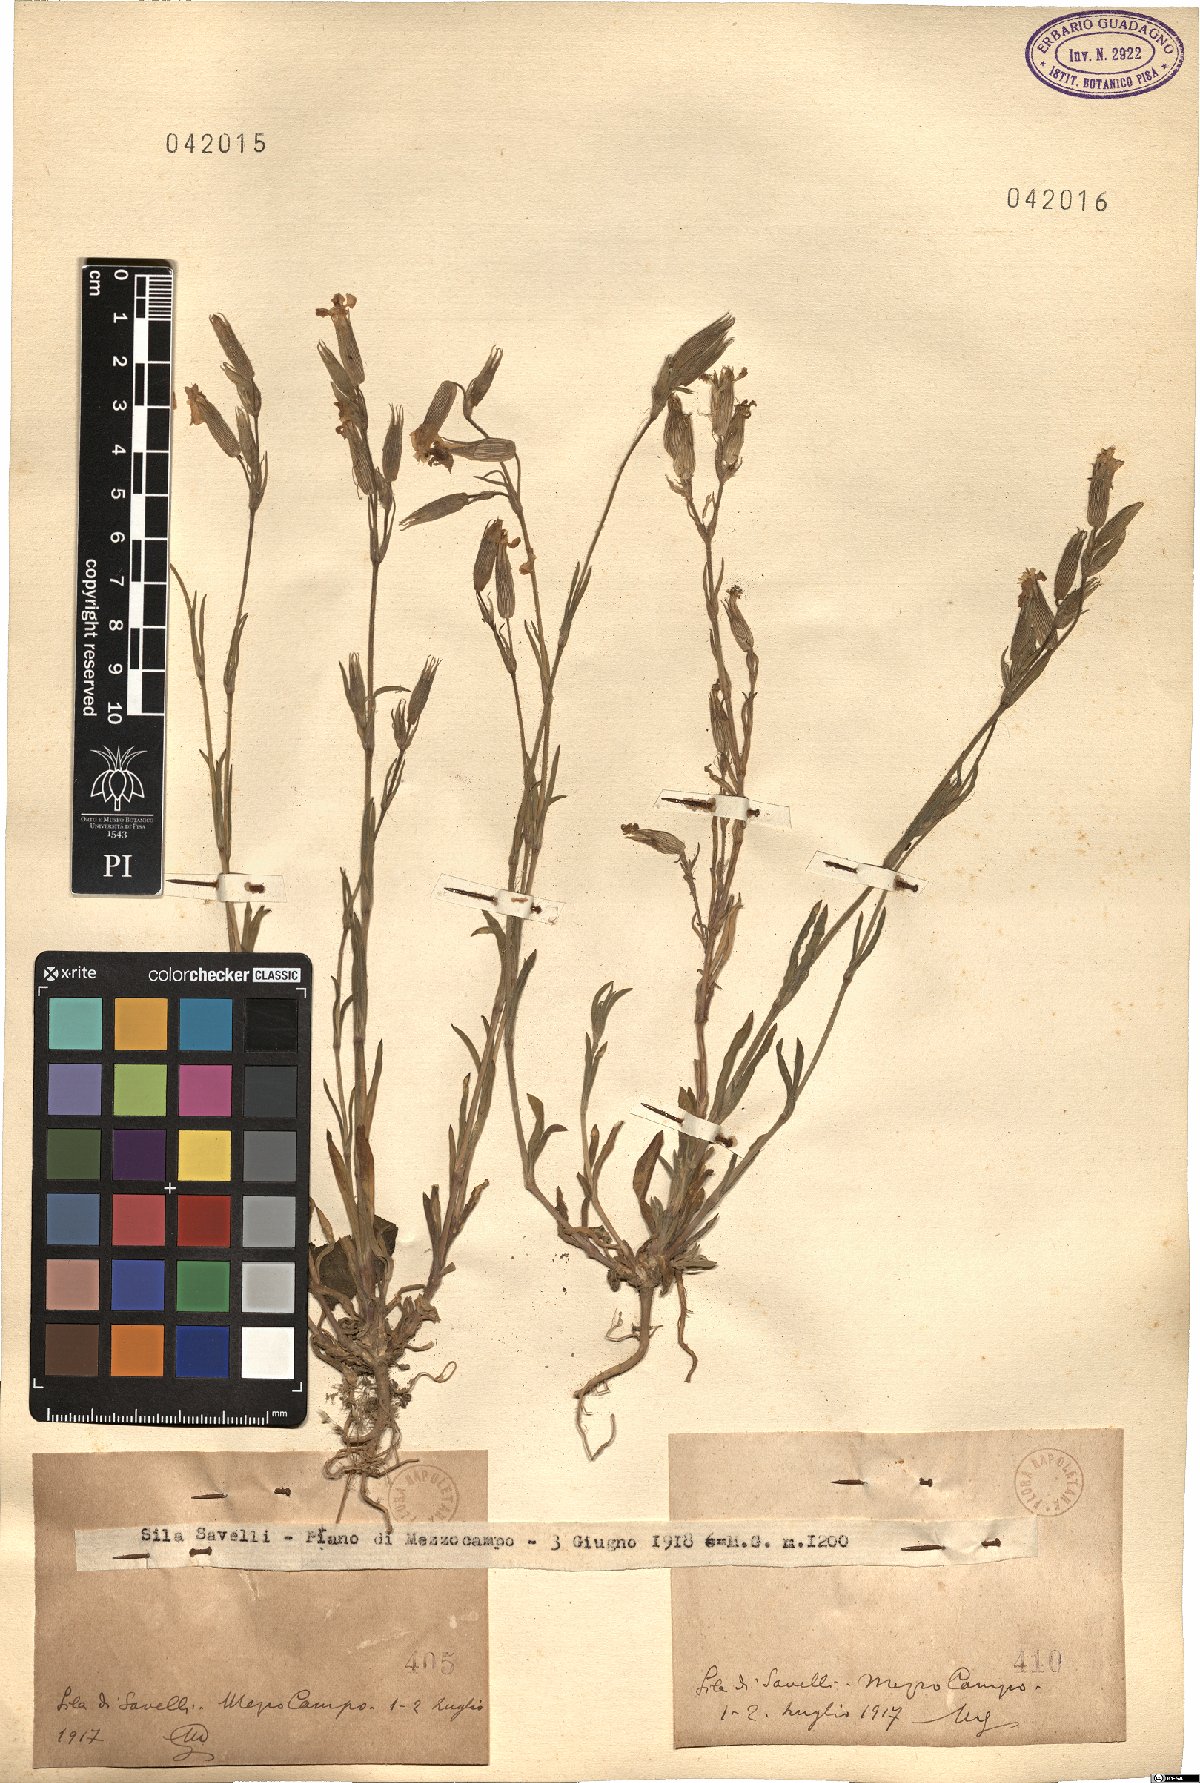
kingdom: Plantae
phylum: Tracheophyta
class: Magnoliopsida
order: Caryophyllales
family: Caryophyllaceae
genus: Silene
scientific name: Silene
